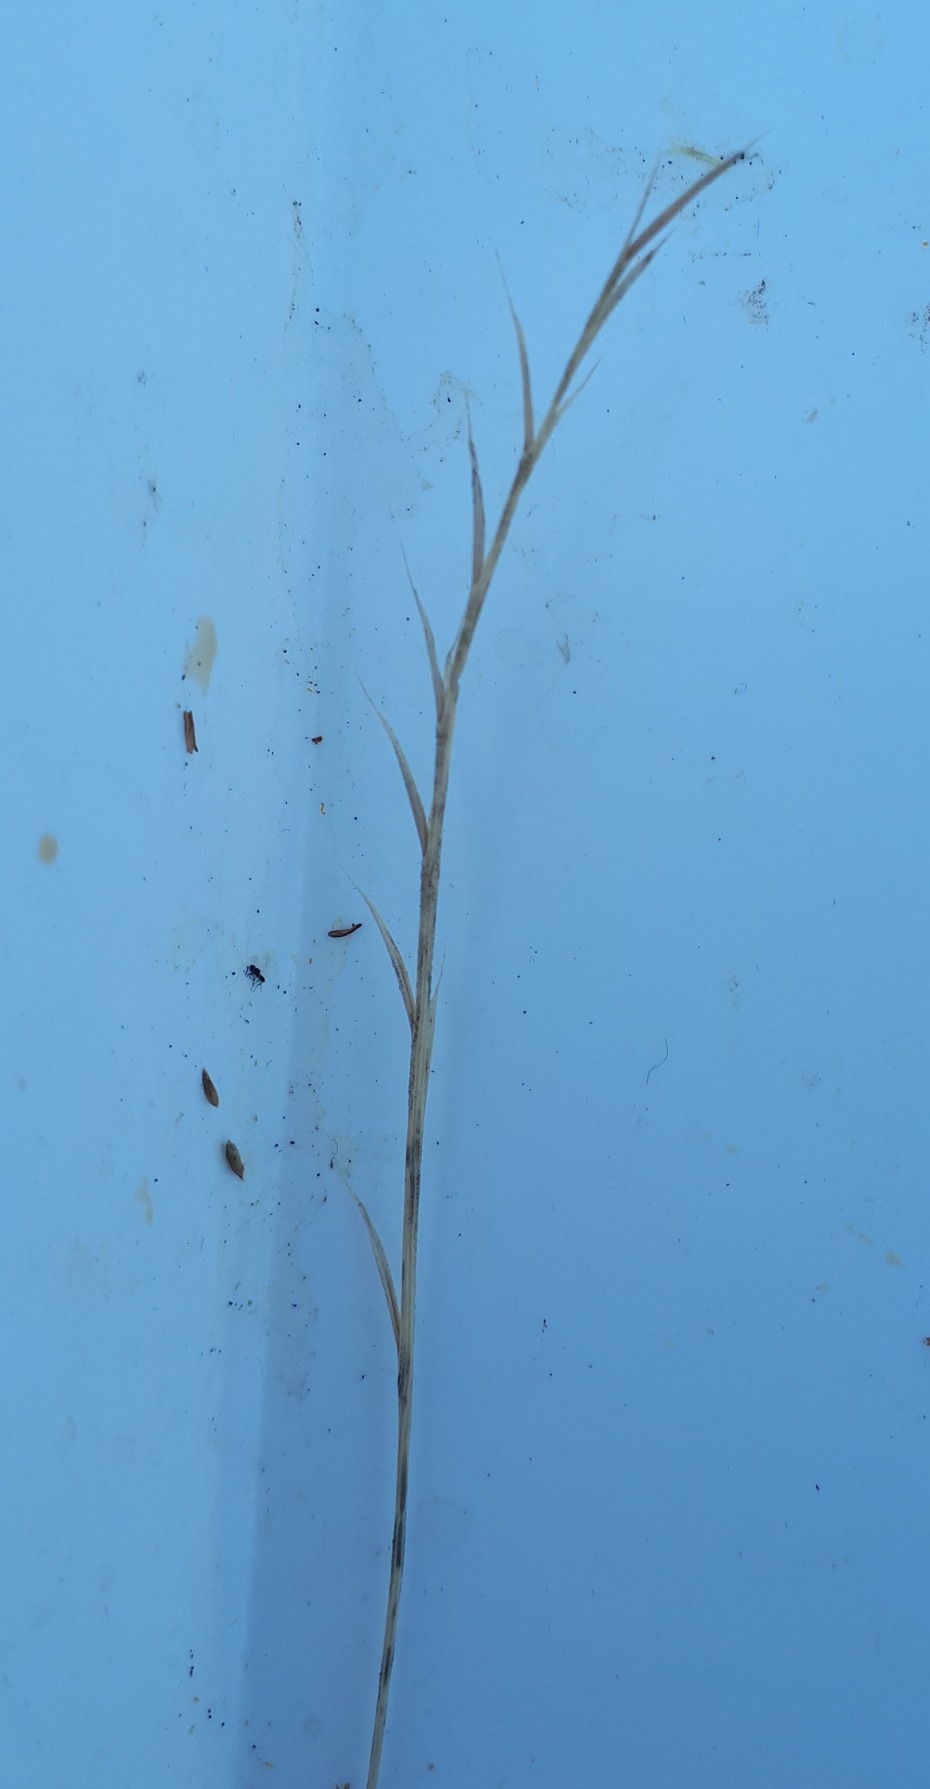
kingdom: Plantae
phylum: Tracheophyta
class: Liliopsida
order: Poales
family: Poaceae
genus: Nardus
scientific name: Nardus stricta
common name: Katteskæg
